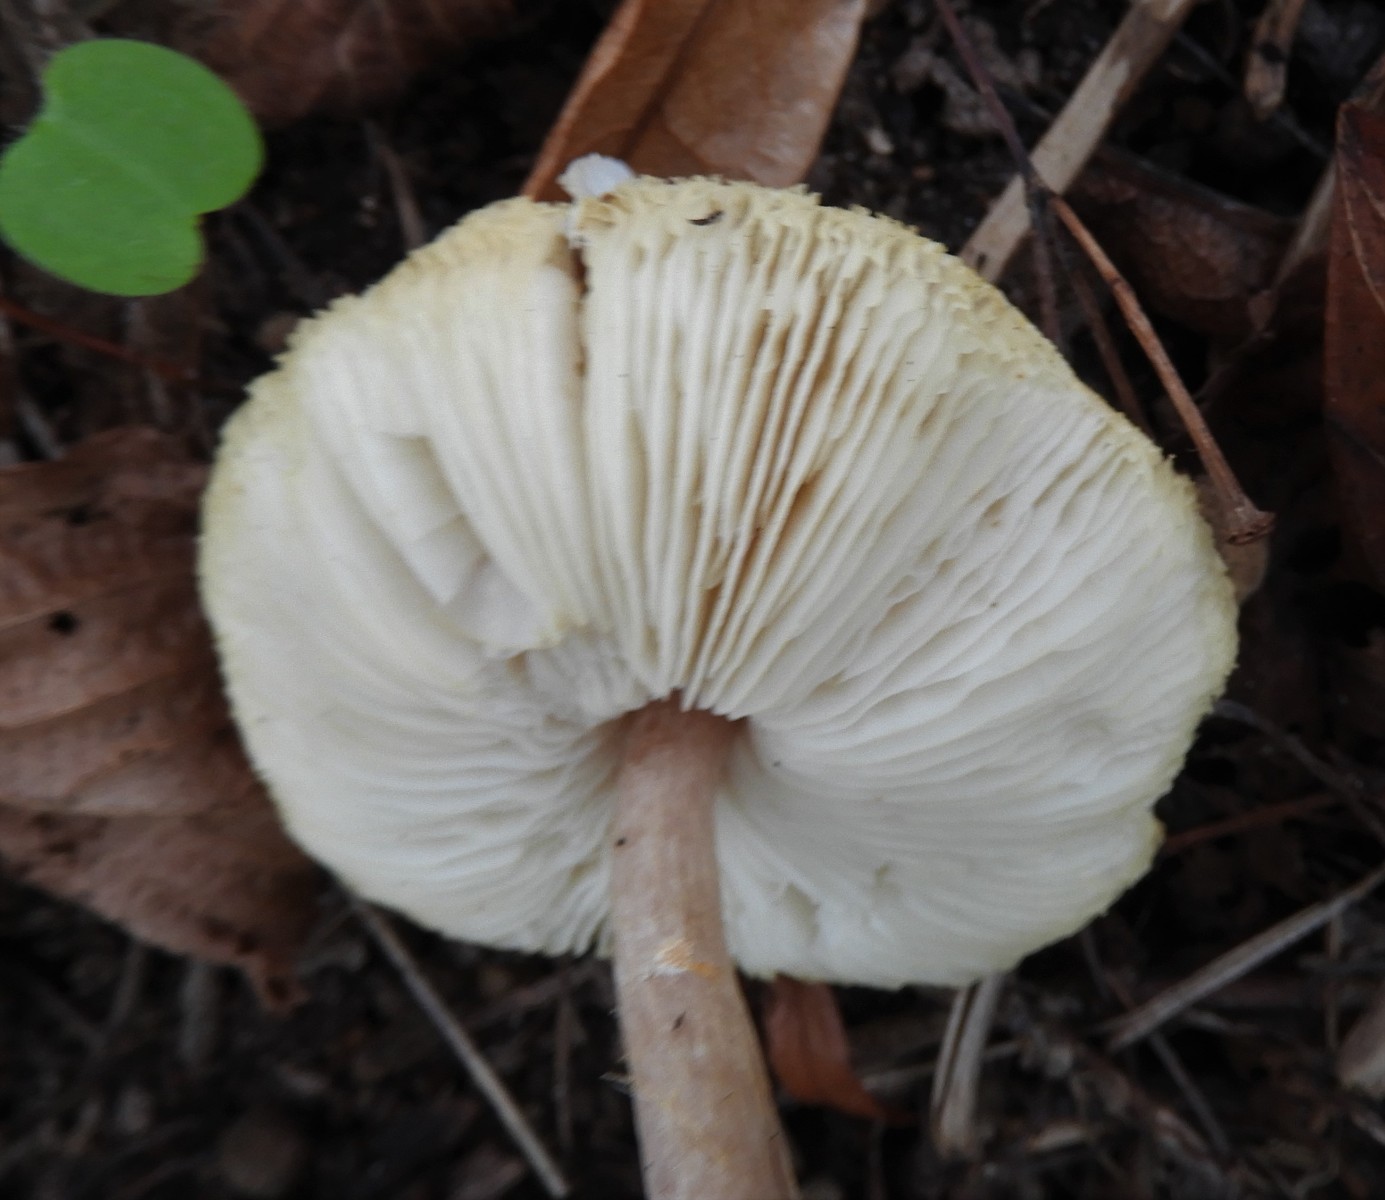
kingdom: Fungi
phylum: Basidiomycota
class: Agaricomycetes
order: Agaricales
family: Agaricaceae
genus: Lepiota
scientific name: Lepiota cristata
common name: stinkende parasolhat
